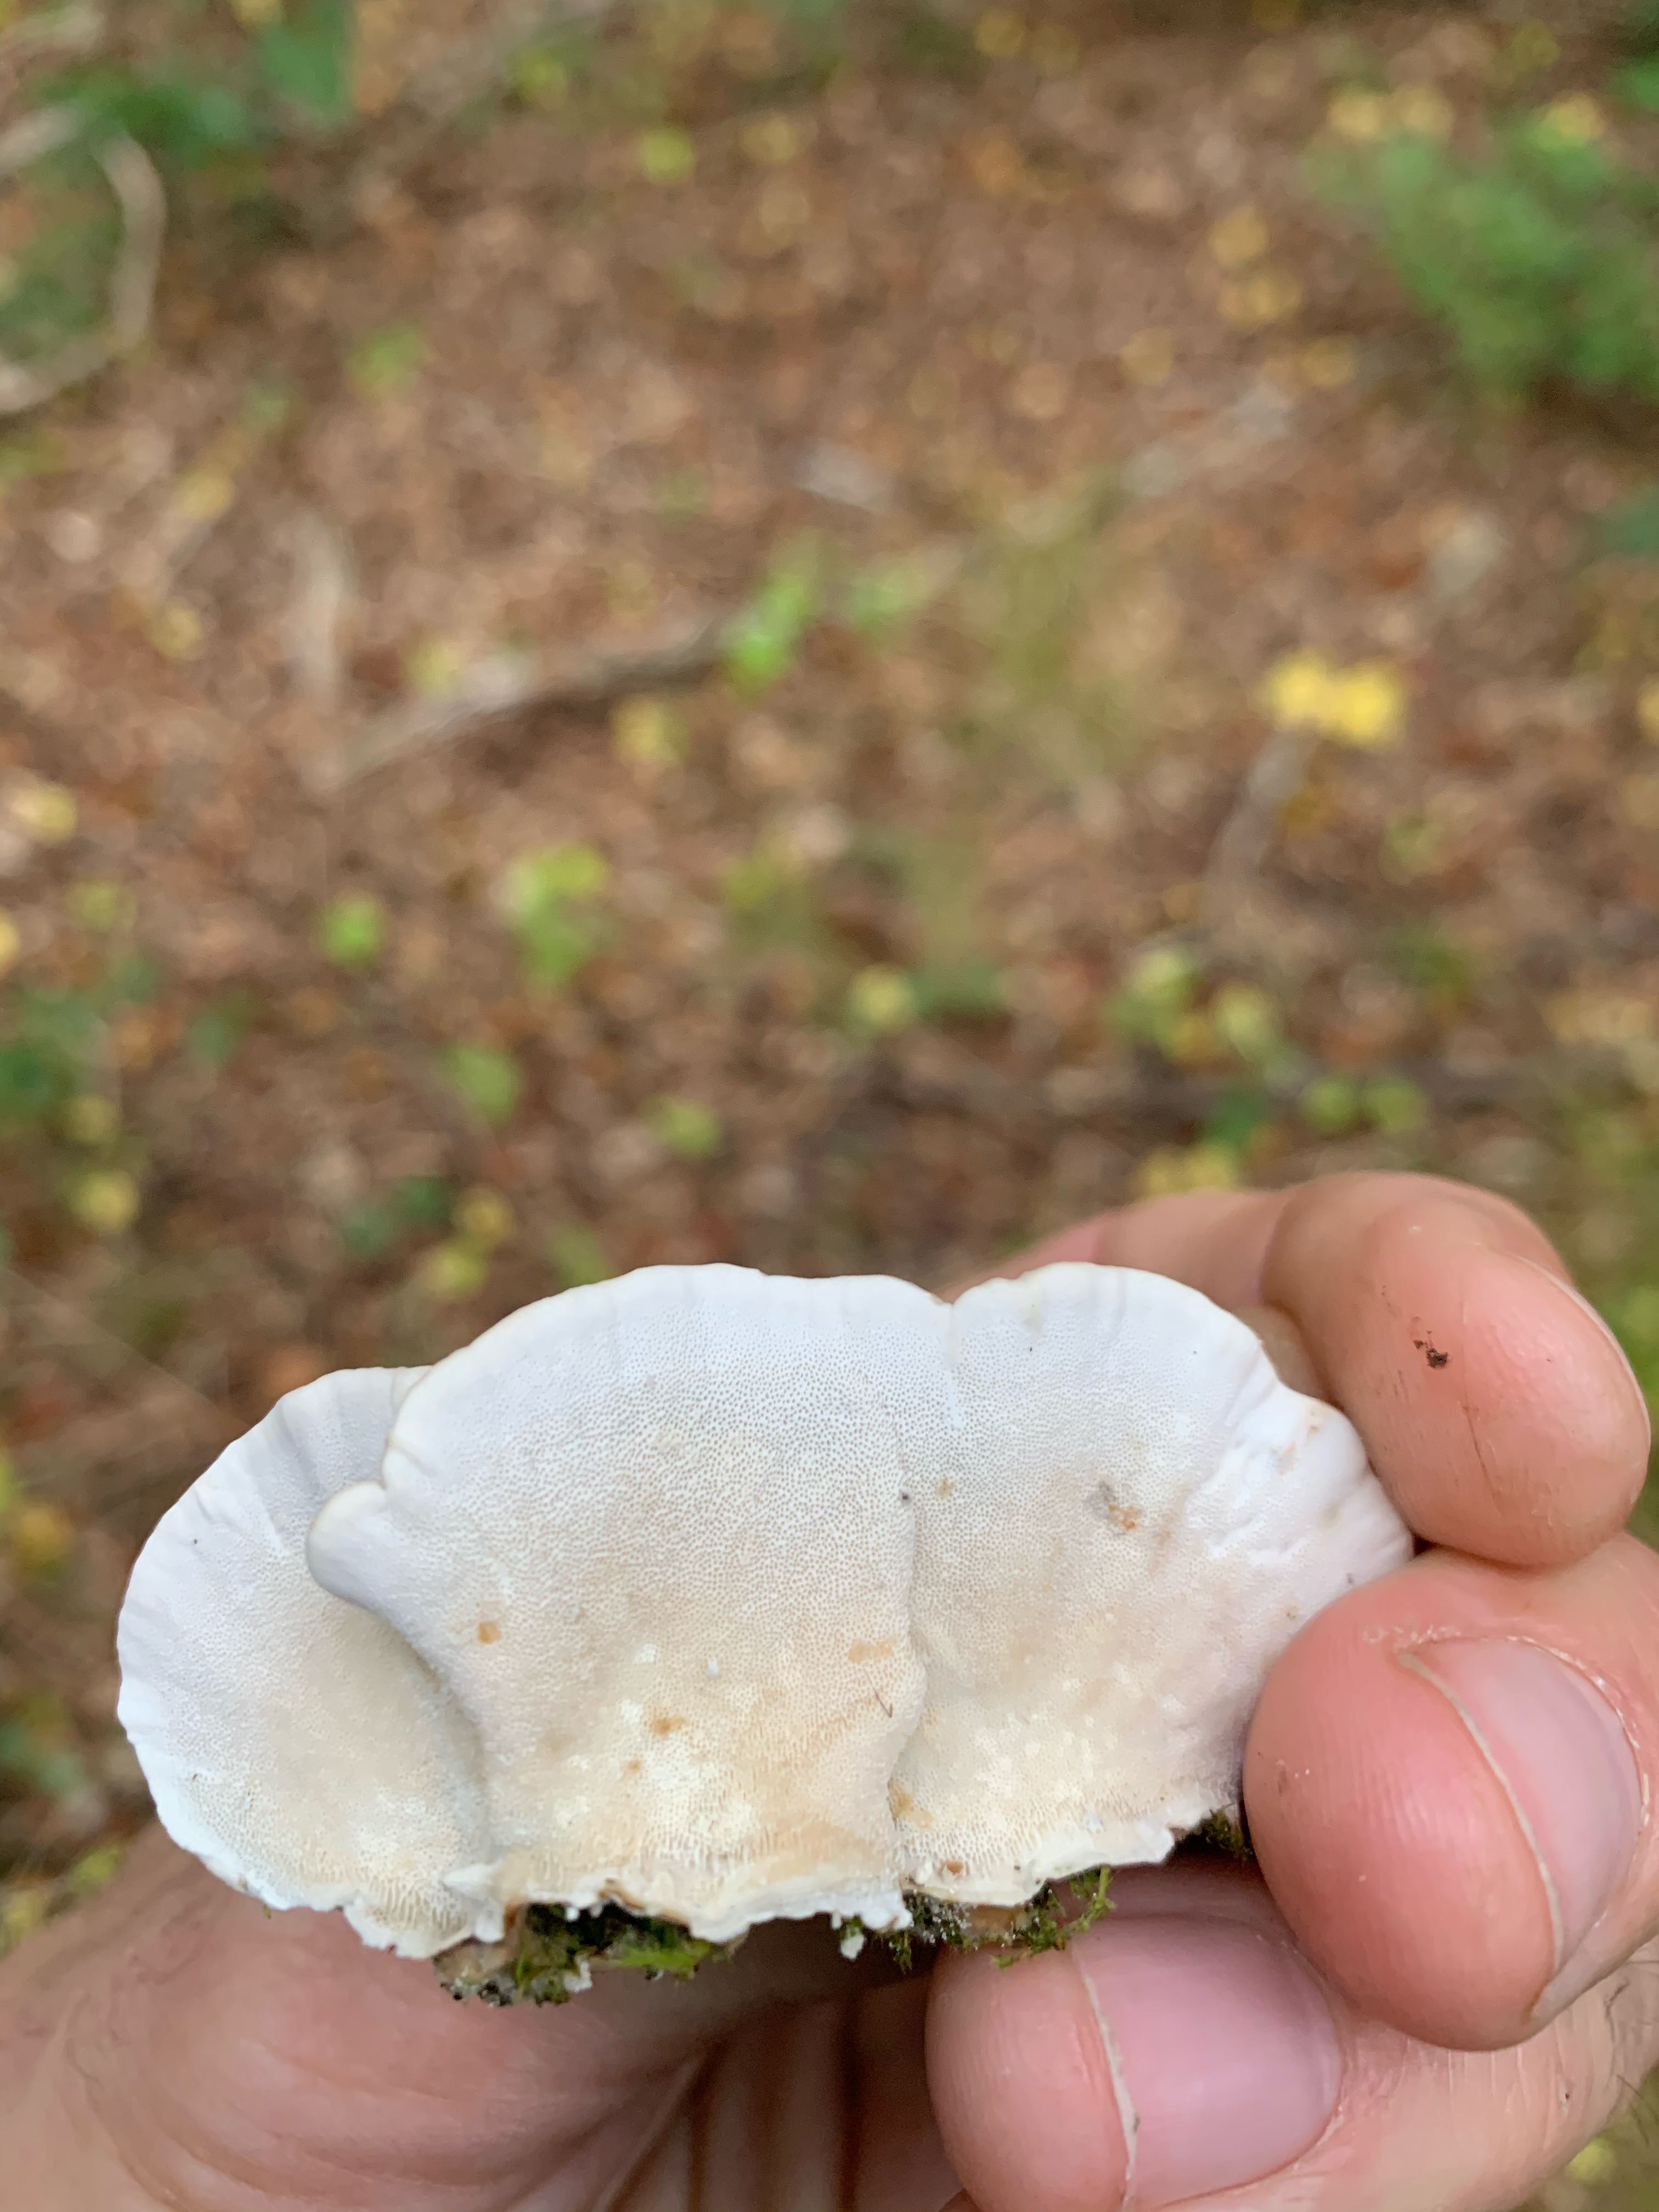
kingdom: Fungi
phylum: Basidiomycota
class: Agaricomycetes
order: Polyporales
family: Polyporaceae
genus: Trametes
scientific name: Trametes versicolor
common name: broget læderporesvamp
